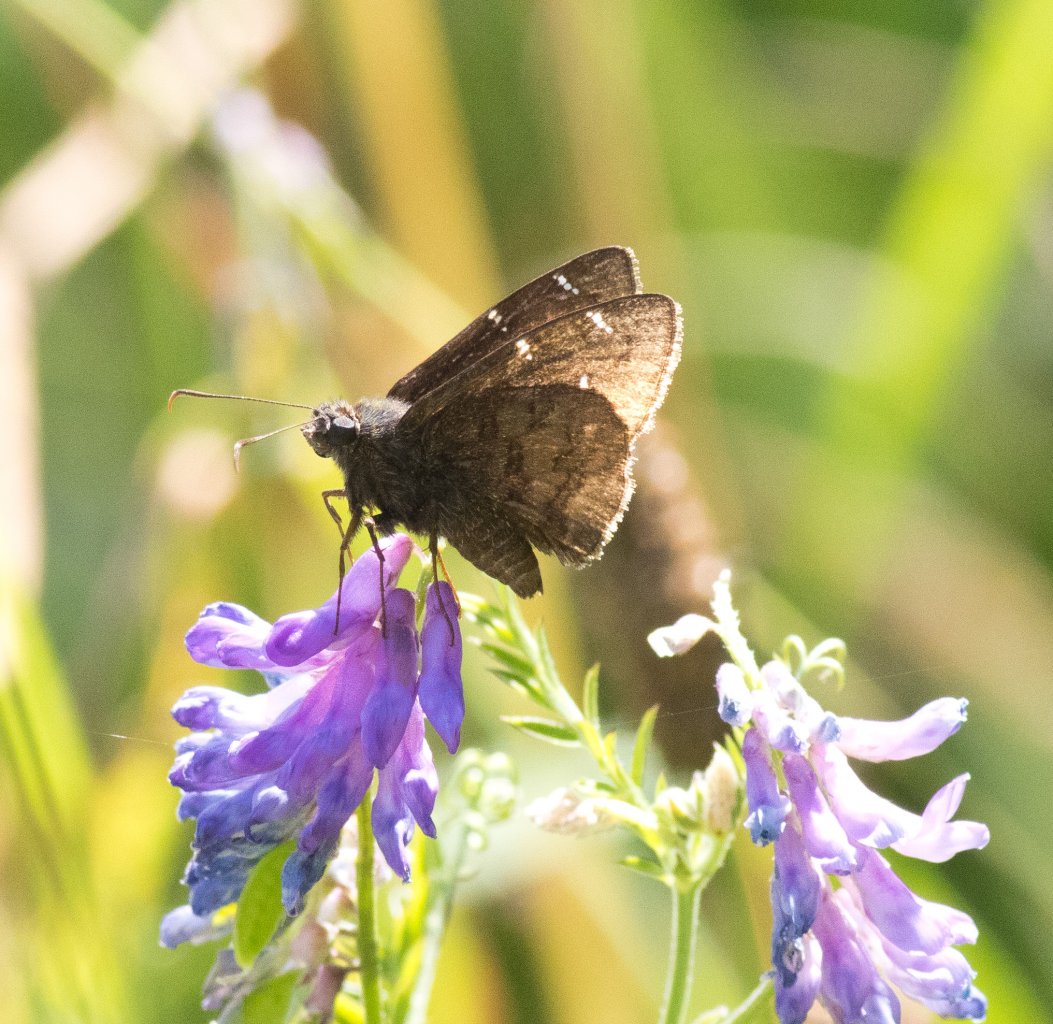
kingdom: Animalia
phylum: Arthropoda
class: Insecta
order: Lepidoptera
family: Hesperiidae
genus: Autochton
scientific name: Autochton
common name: Northern Cloudywing
